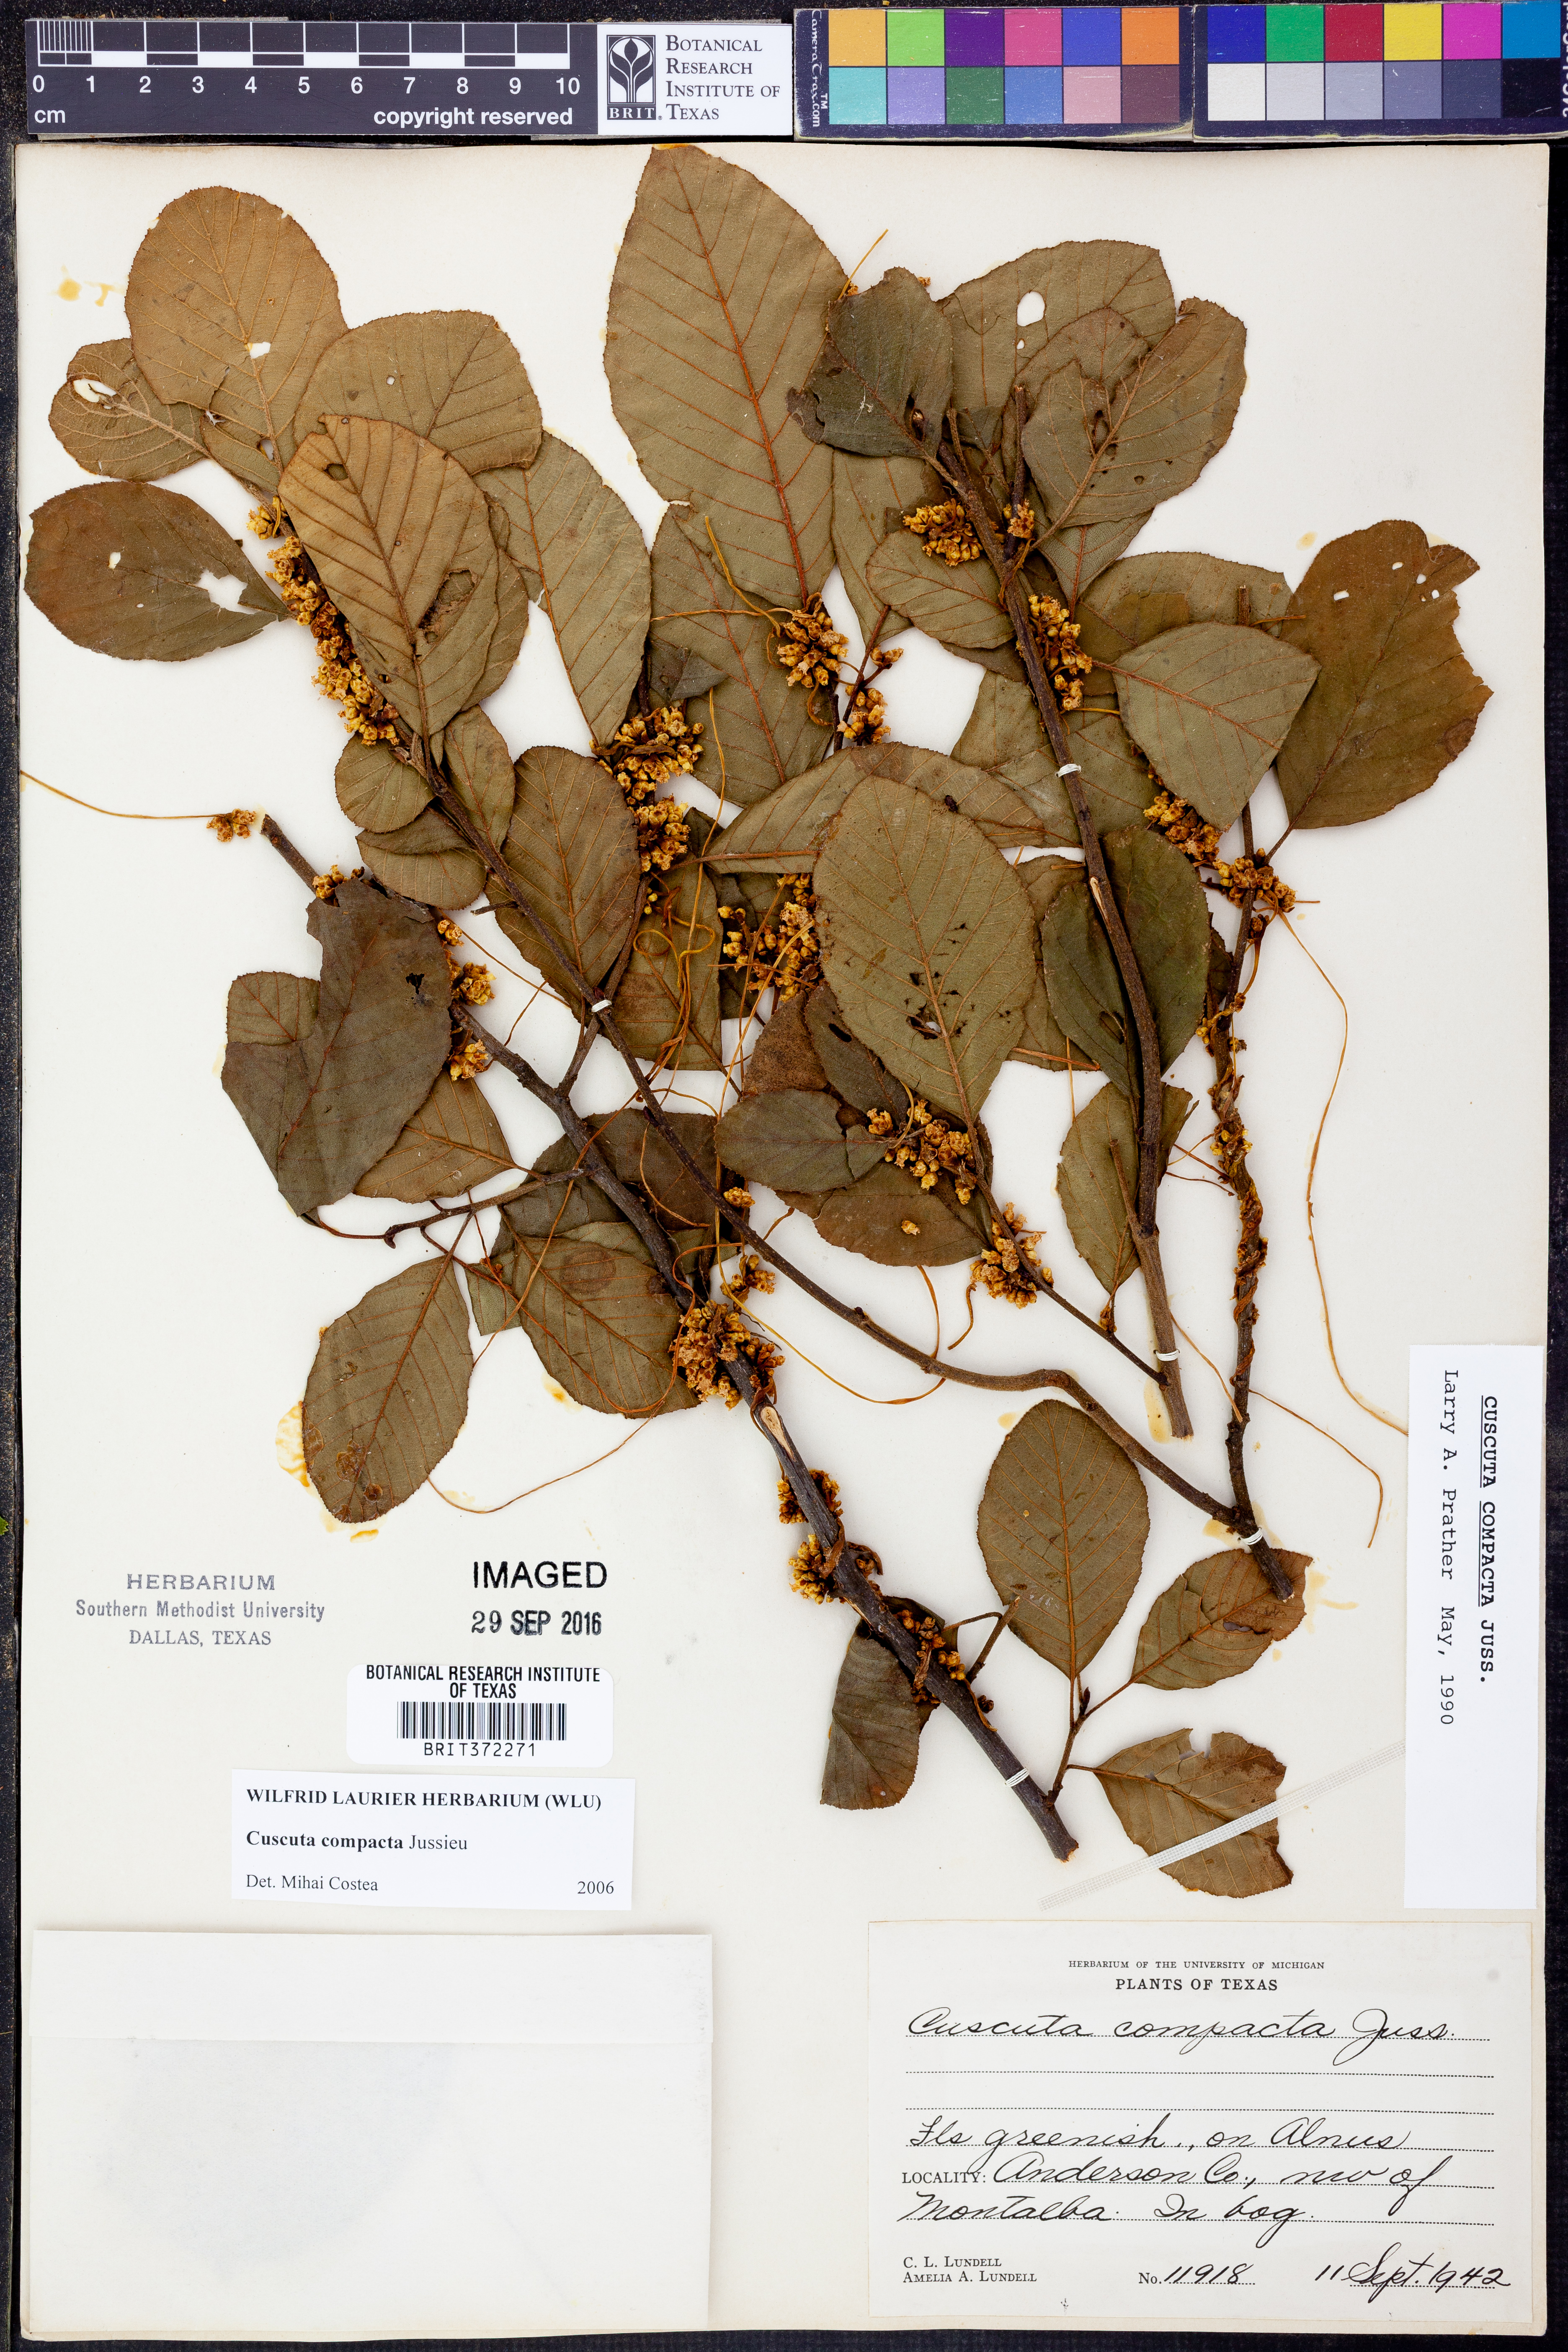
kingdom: Plantae
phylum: Tracheophyta
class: Magnoliopsida
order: Solanales
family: Convolvulaceae
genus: Cuscuta
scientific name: Cuscuta compacta
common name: Compact dodder
